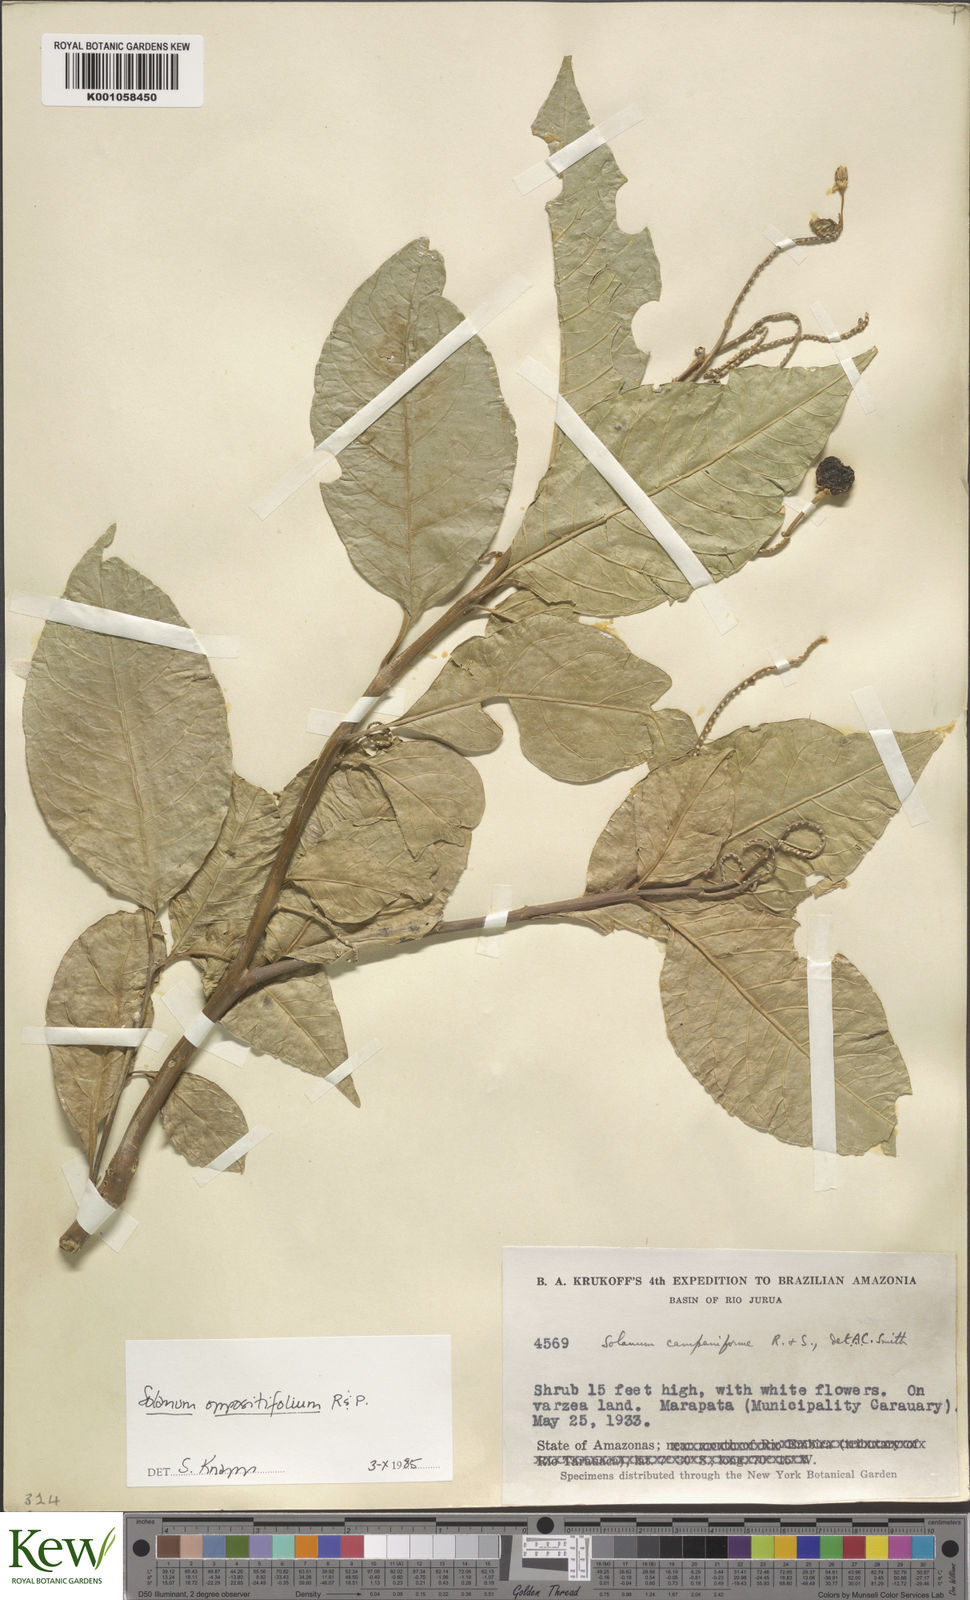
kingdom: Plantae
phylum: Tracheophyta
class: Magnoliopsida
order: Solanales
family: Solanaceae
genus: Solanum
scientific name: Solanum oppositifolium
